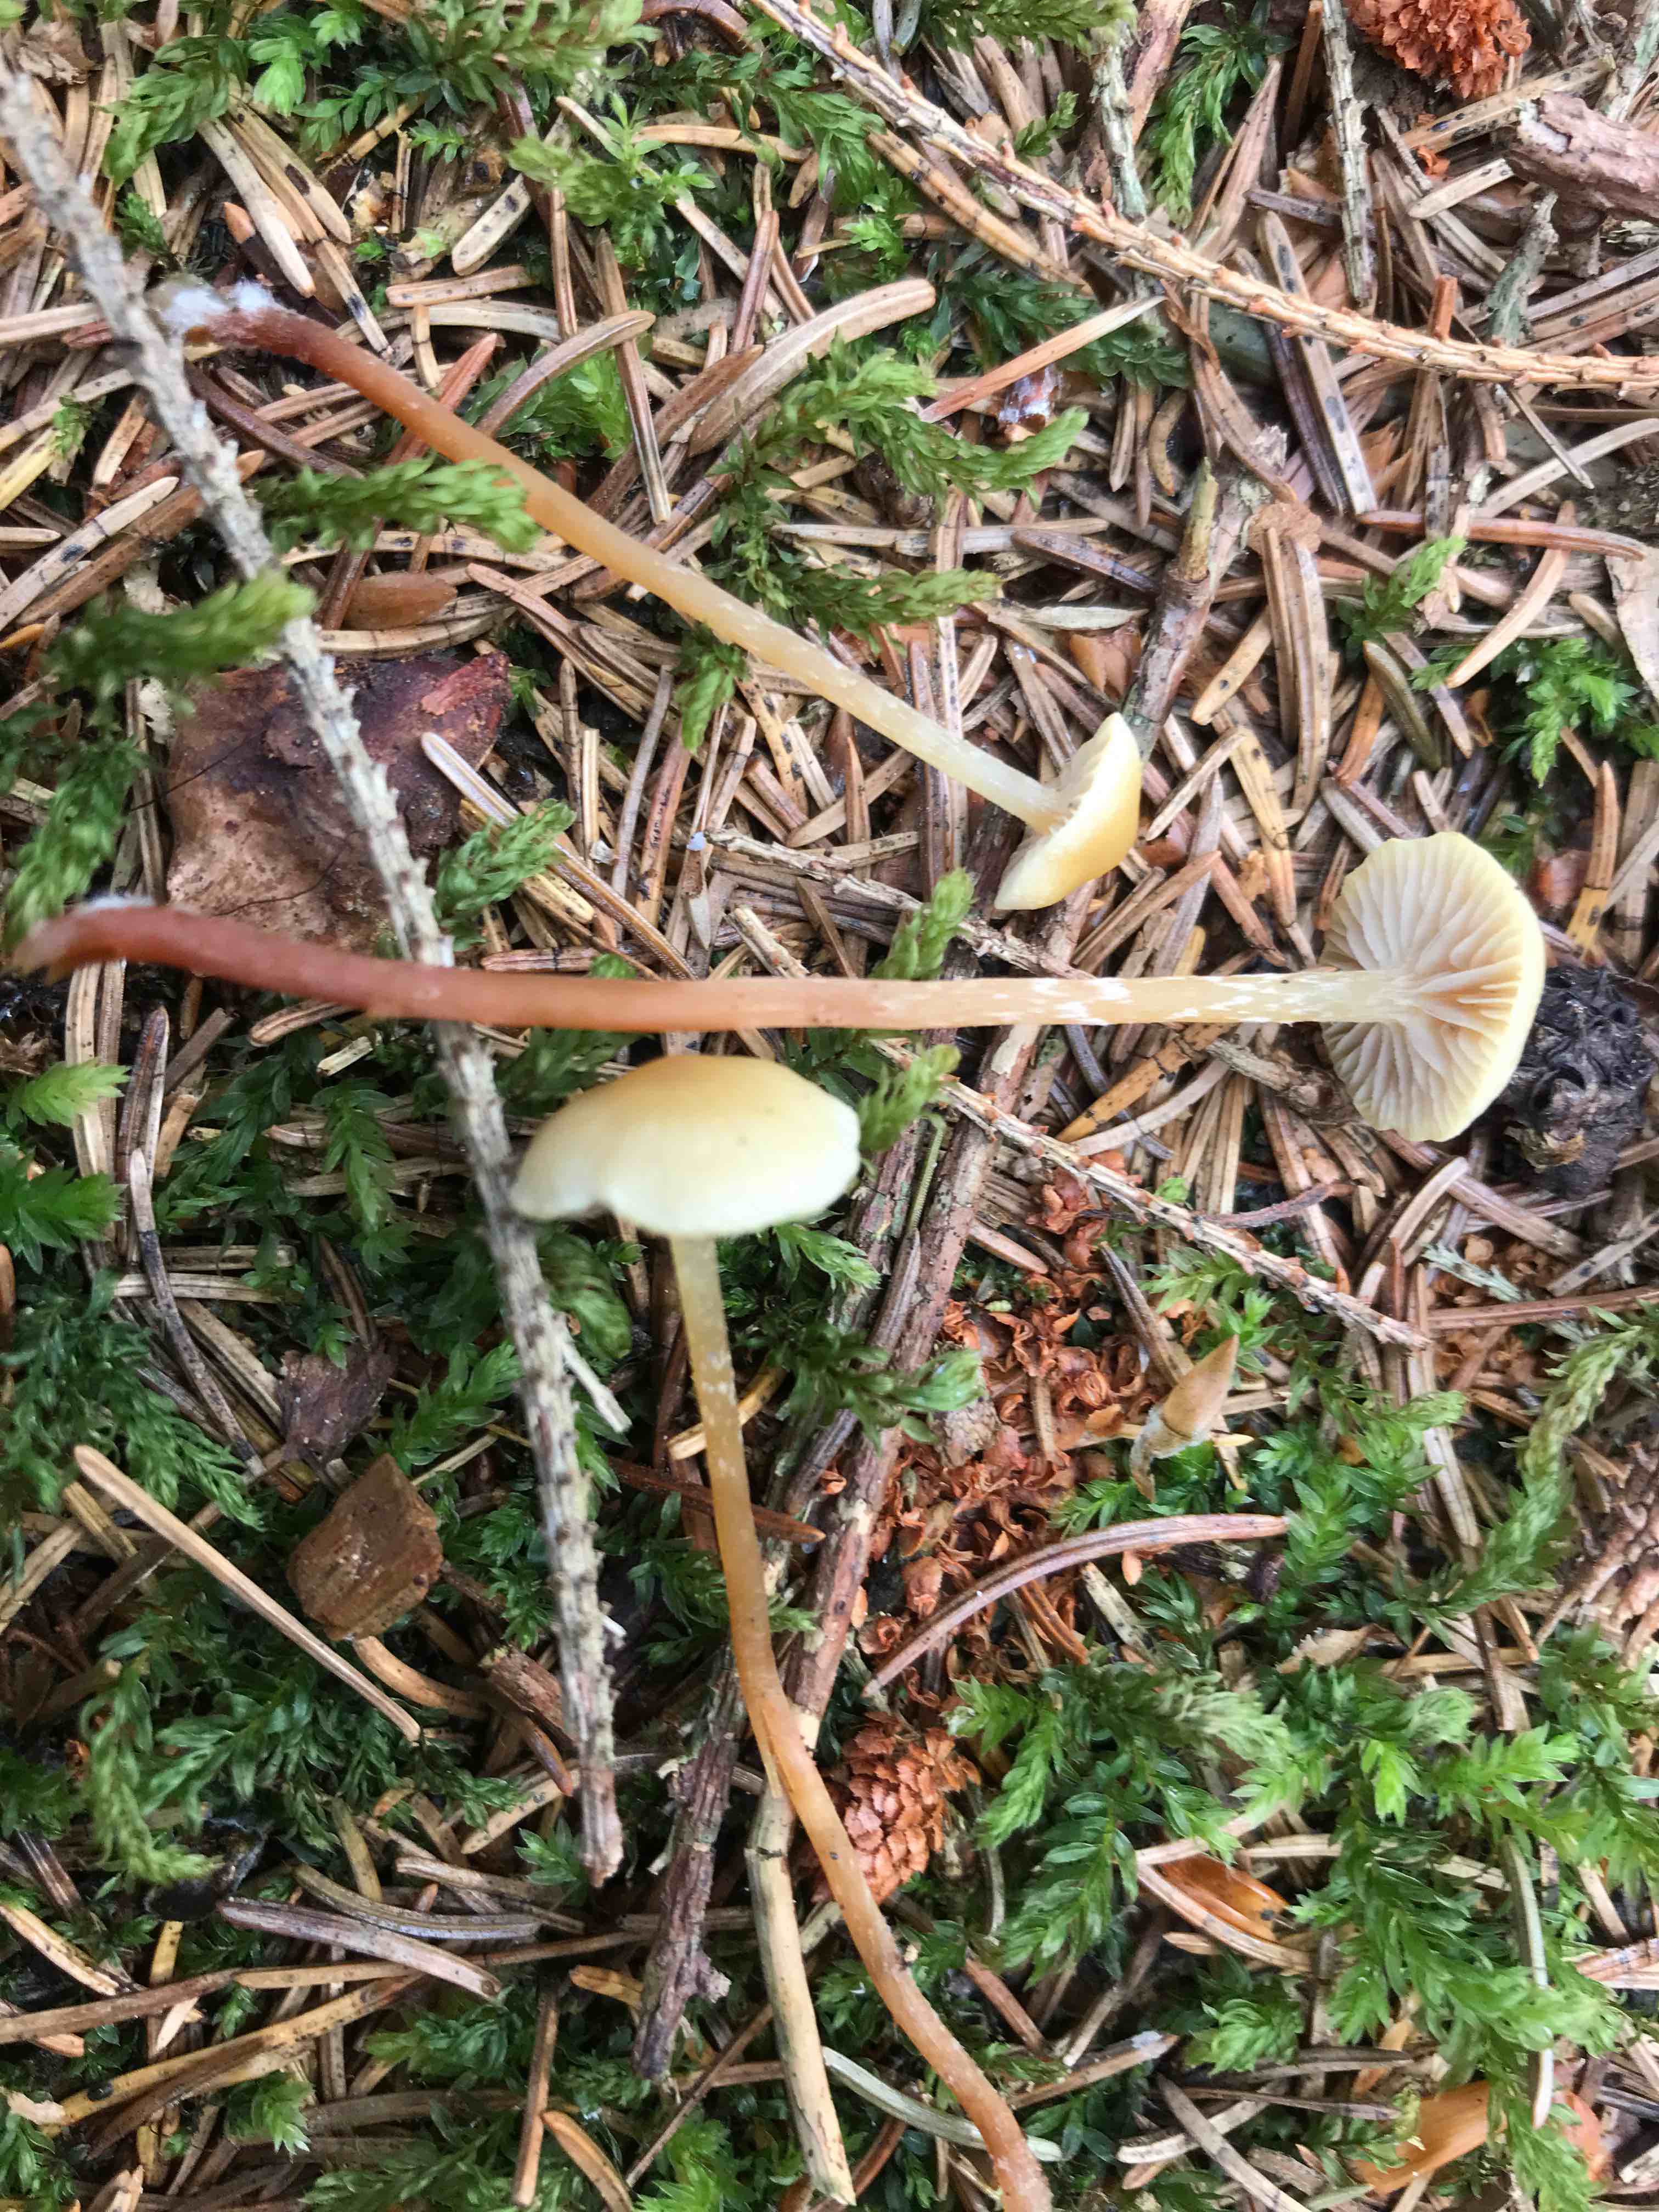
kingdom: Fungi
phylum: Basidiomycota
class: Agaricomycetes
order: Agaricales
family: Strophariaceae
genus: Hypholoma
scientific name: Hypholoma elongatum
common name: slank svovlhat
